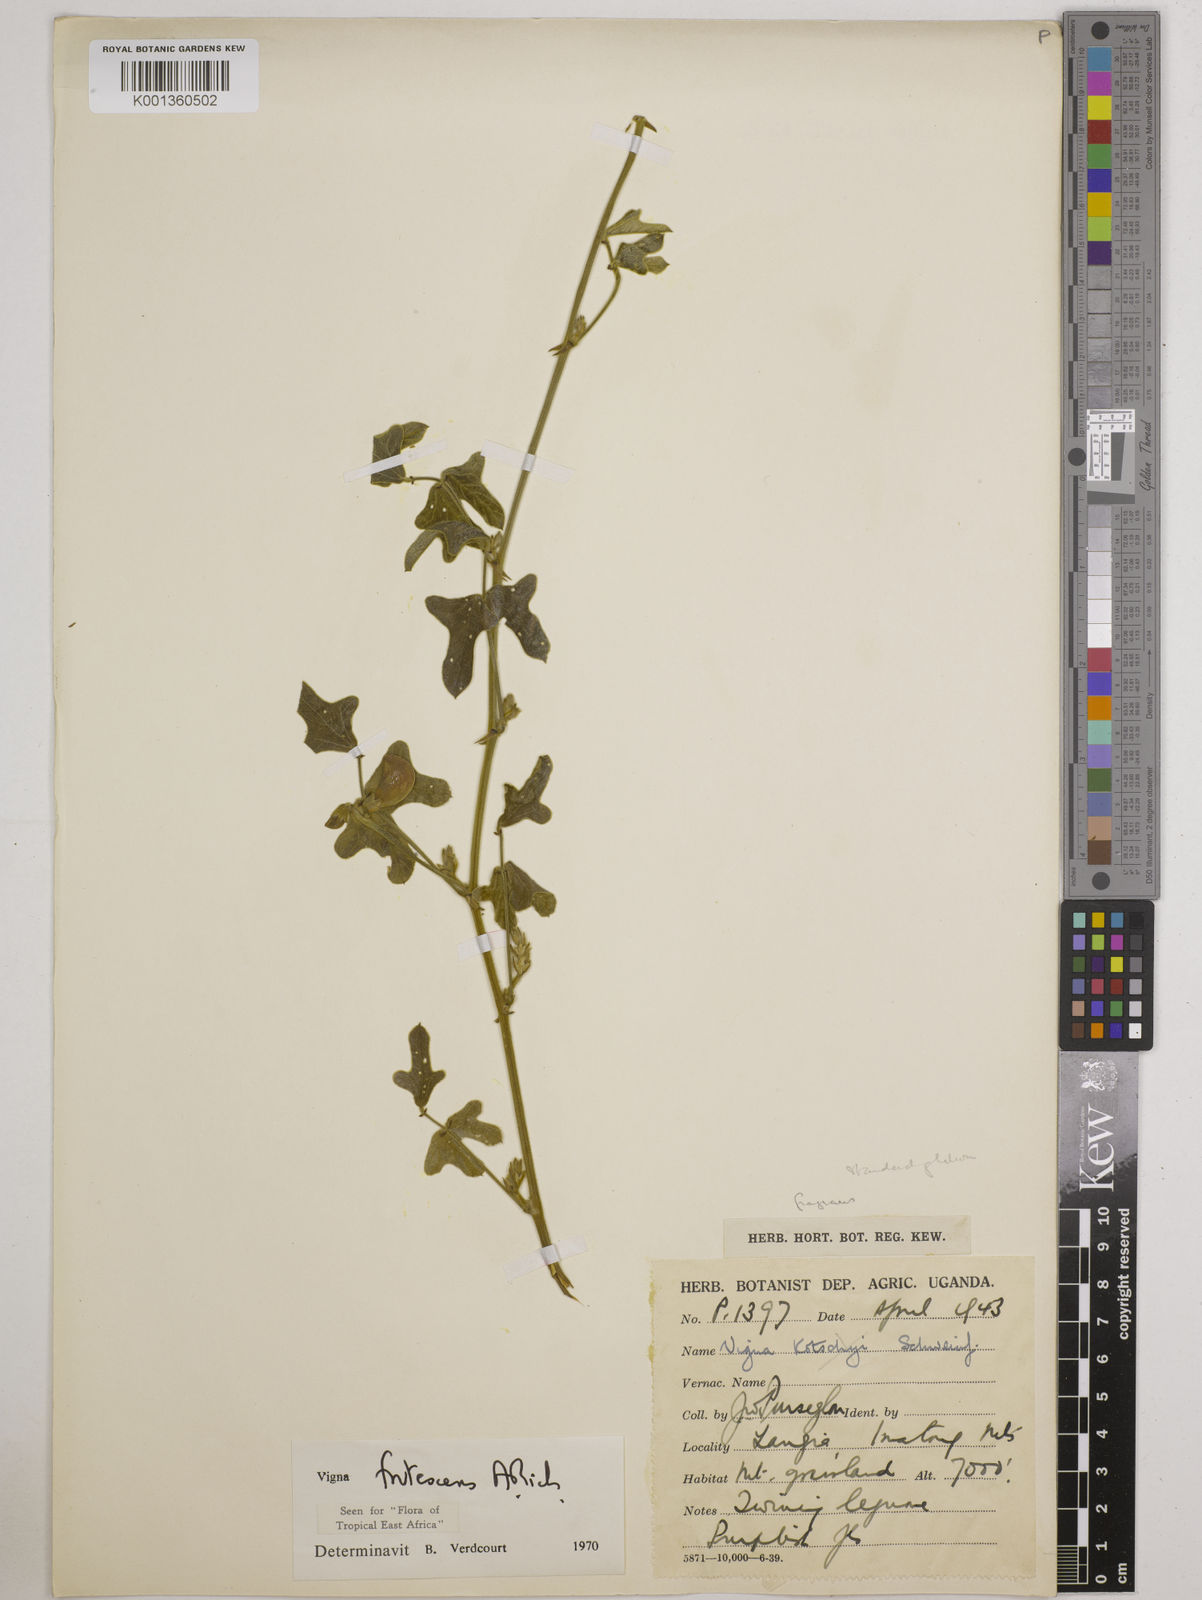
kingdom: Plantae
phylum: Tracheophyta
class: Magnoliopsida
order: Fabales
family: Fabaceae
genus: Vigna
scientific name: Vigna frutescens
